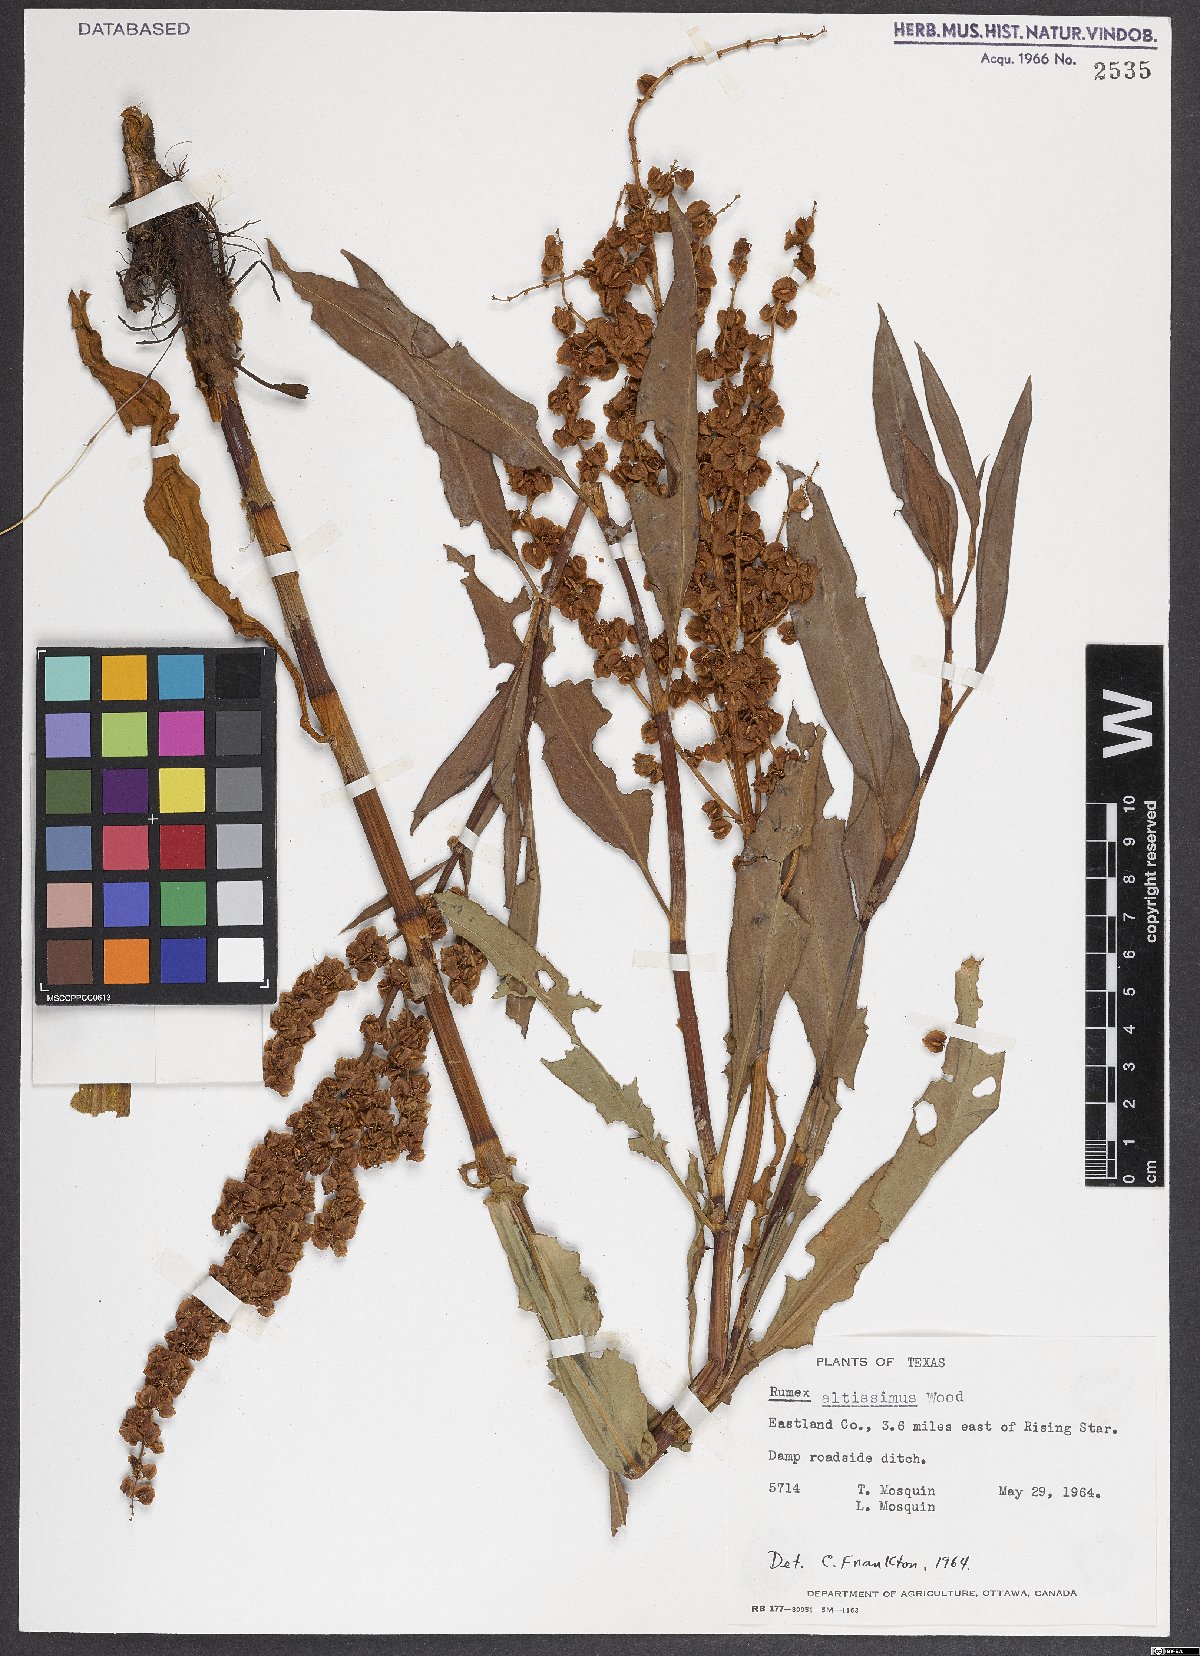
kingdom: Plantae
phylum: Tracheophyta
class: Magnoliopsida
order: Caryophyllales
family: Polygonaceae
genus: Rumex
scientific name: Rumex altissimus
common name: Smooth dock
